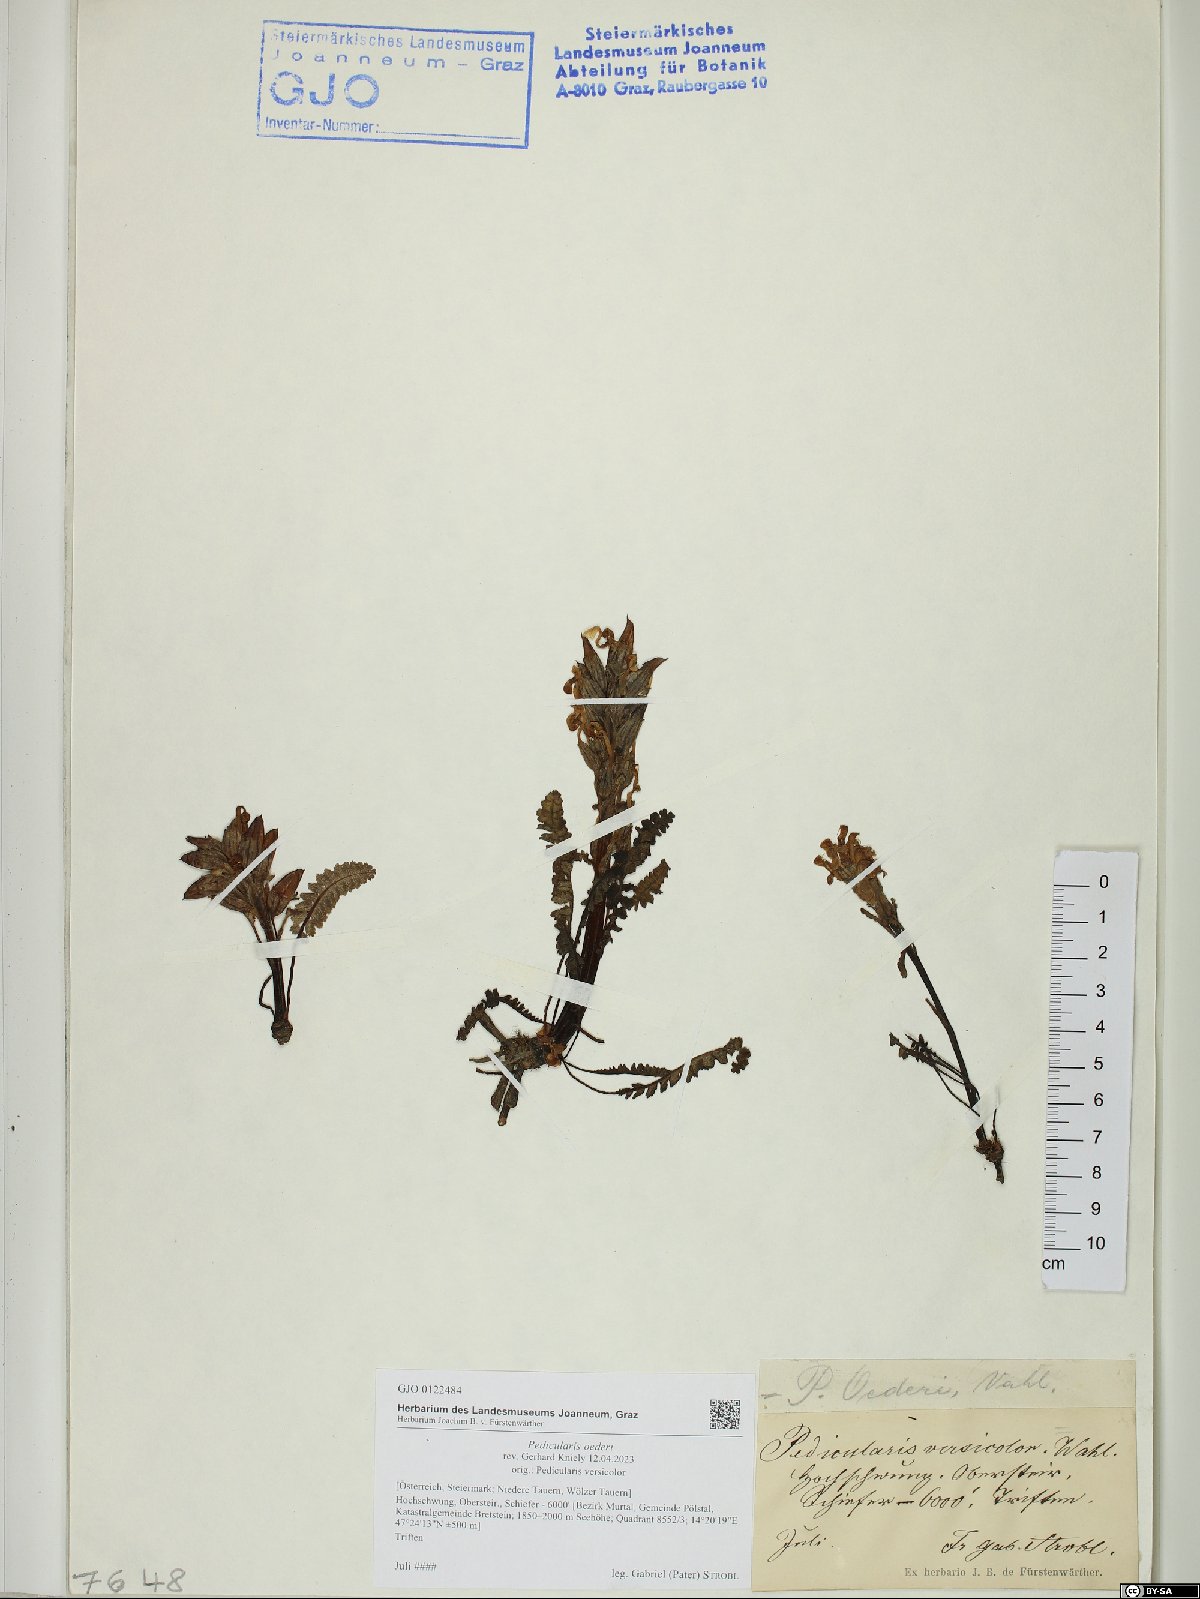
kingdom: Plantae
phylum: Tracheophyta
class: Magnoliopsida
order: Lamiales
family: Orobanchaceae
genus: Pedicularis
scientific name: Pedicularis oederi
